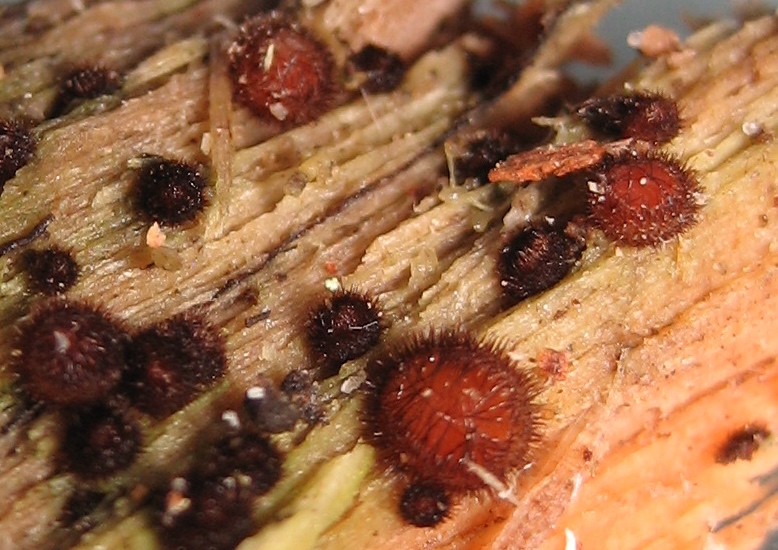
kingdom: Fungi
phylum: Ascomycota
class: Pezizomycetes
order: Pezizales
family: Pyronemataceae
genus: Scutellinia
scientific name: Scutellinia
